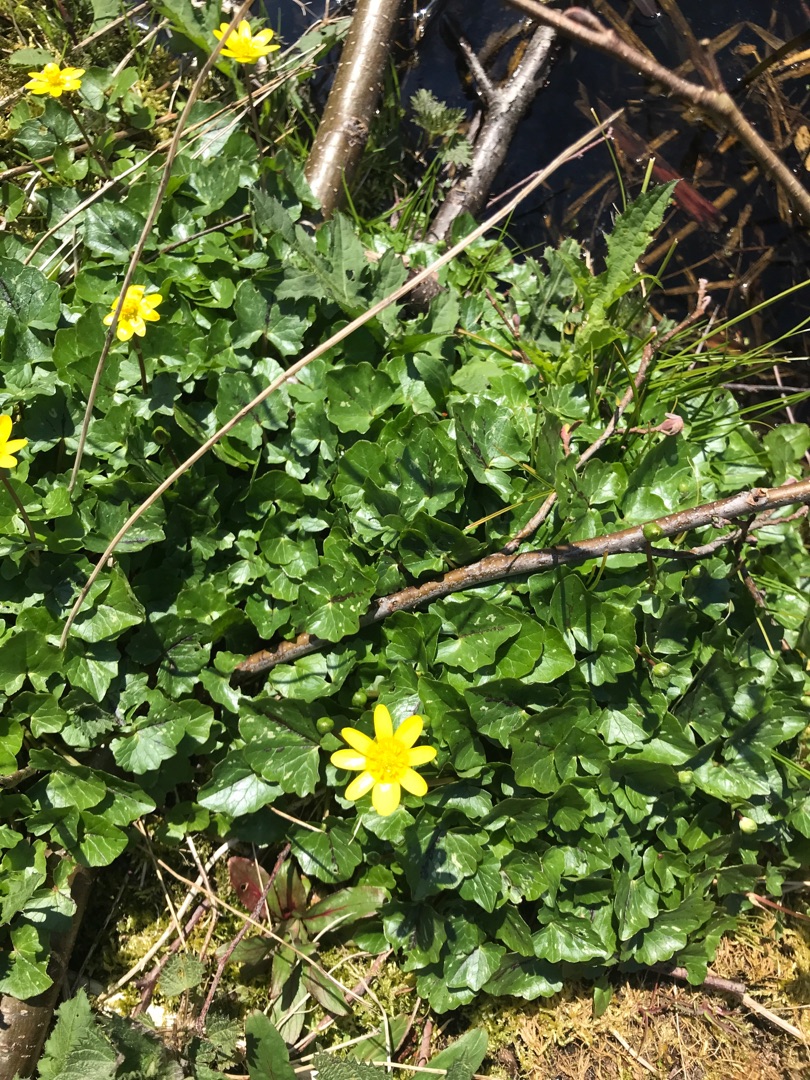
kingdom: Plantae
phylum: Tracheophyta
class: Magnoliopsida
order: Ranunculales
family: Ranunculaceae
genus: Ficaria
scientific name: Ficaria verna
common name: Vorterod
